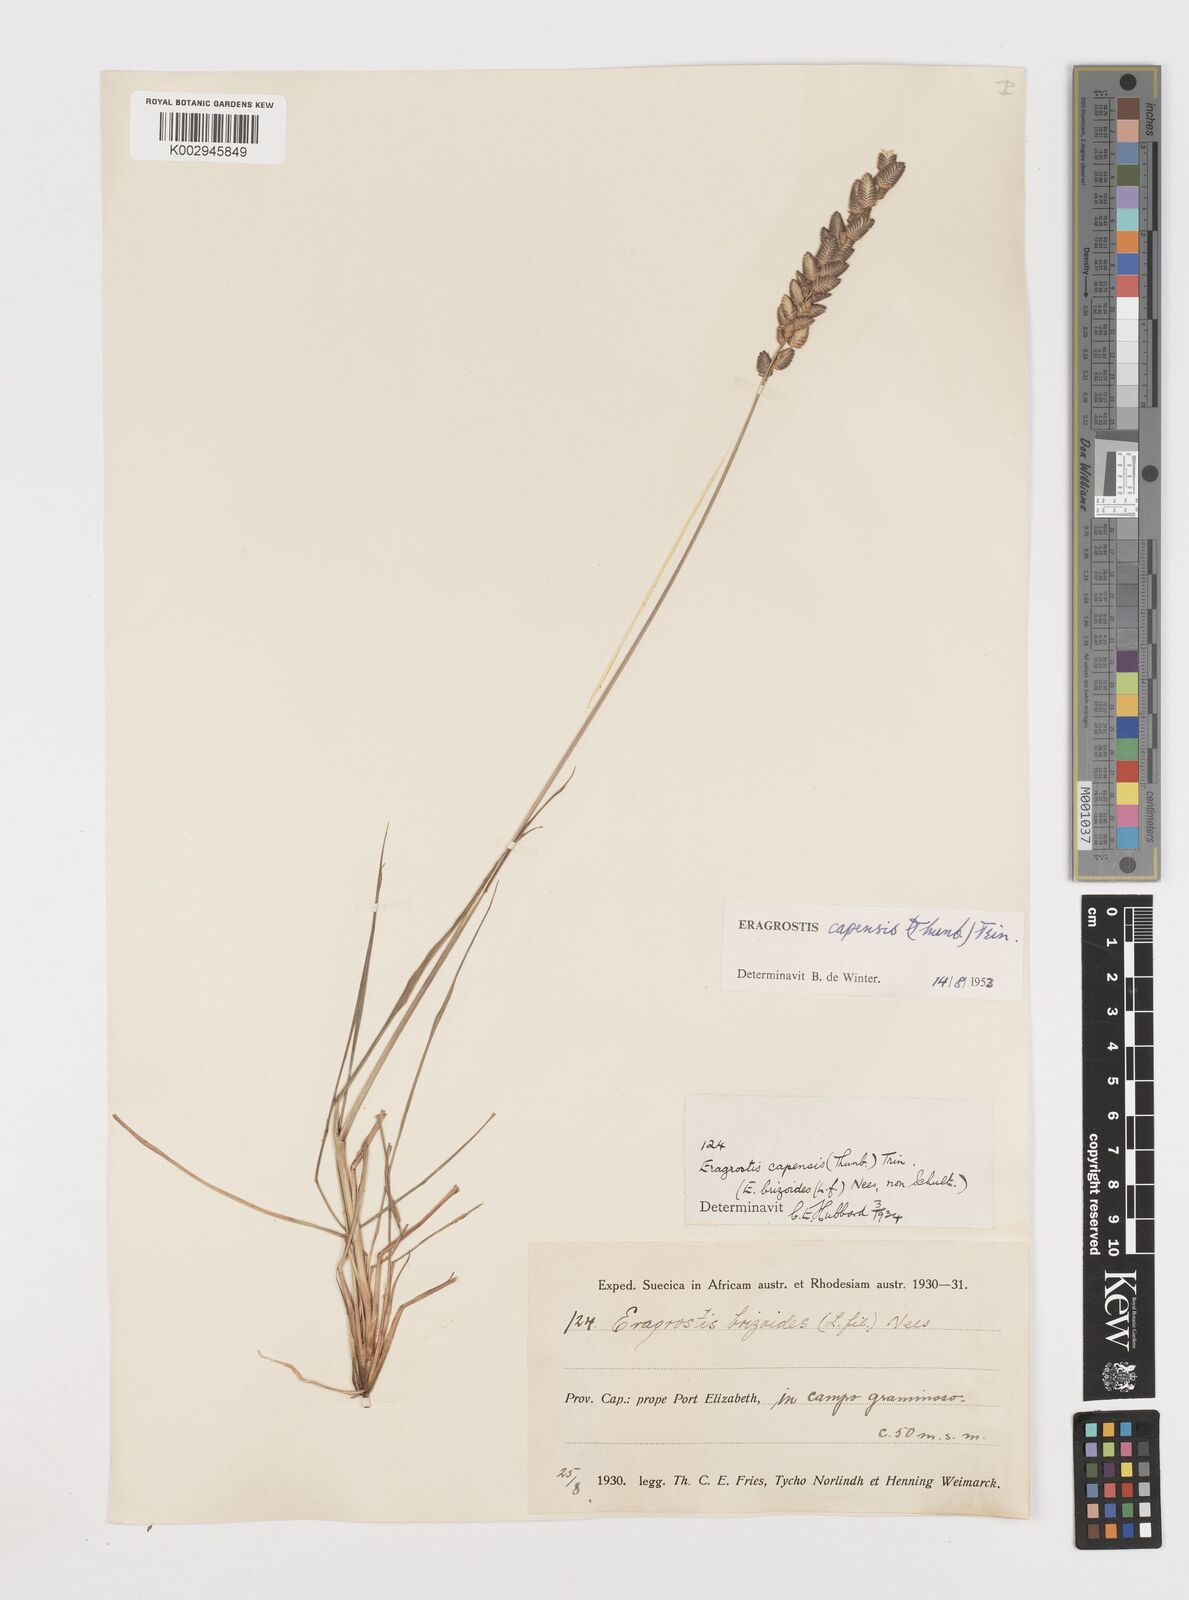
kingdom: Plantae
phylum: Tracheophyta
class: Liliopsida
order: Poales
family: Poaceae
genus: Eragrostis
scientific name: Eragrostis capensis
